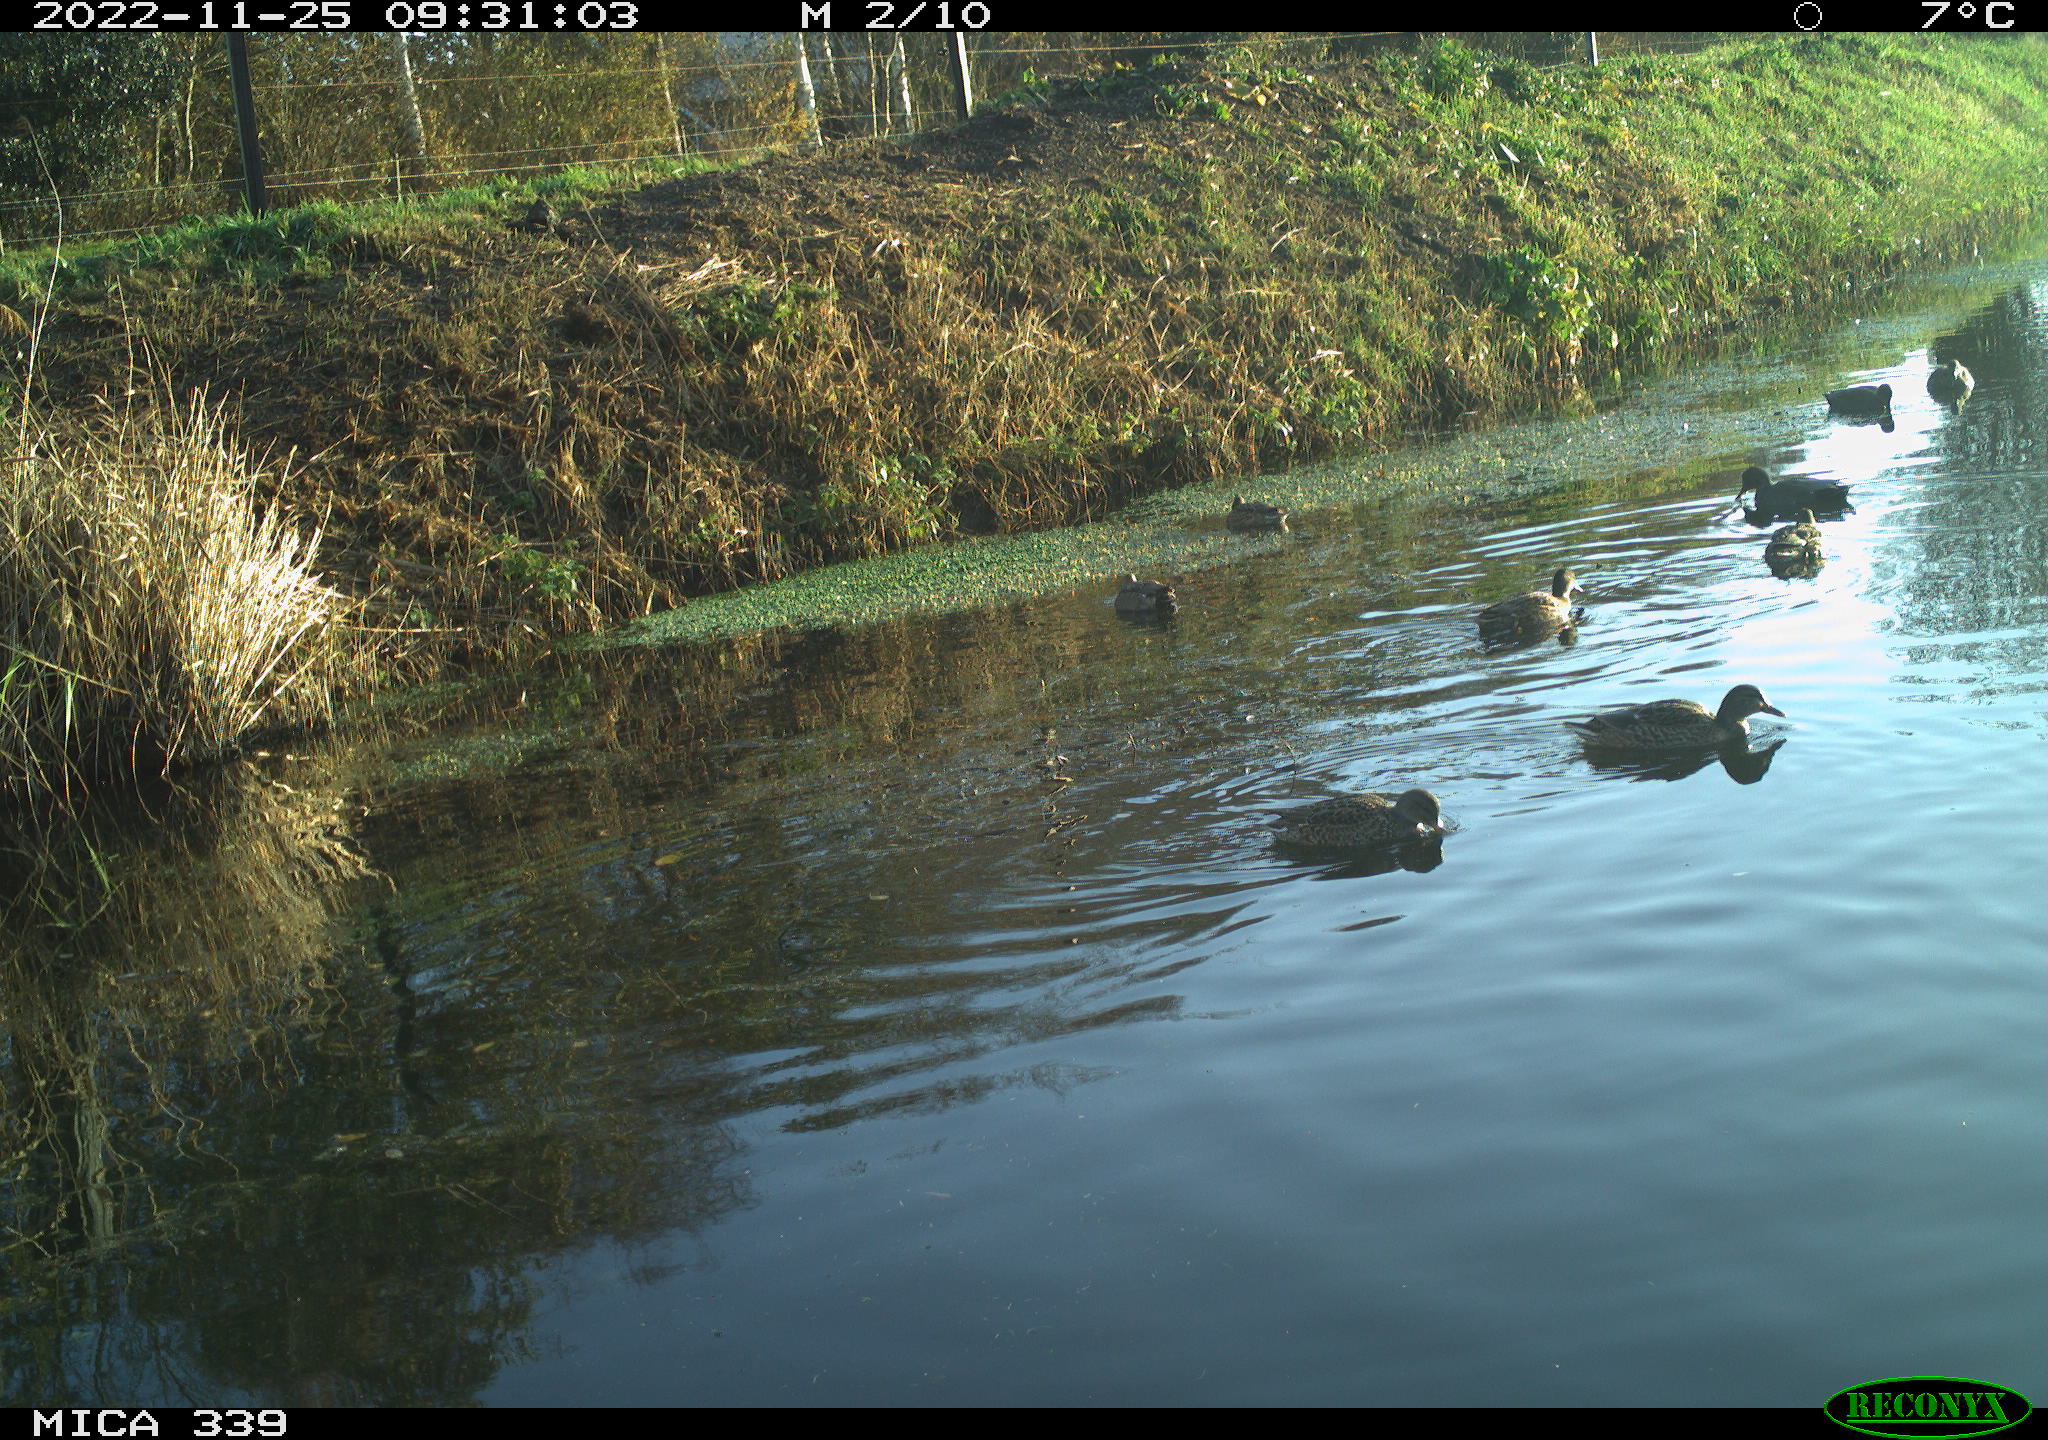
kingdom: Animalia
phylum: Chordata
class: Aves
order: Anseriformes
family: Anatidae
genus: Anas
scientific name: Anas
